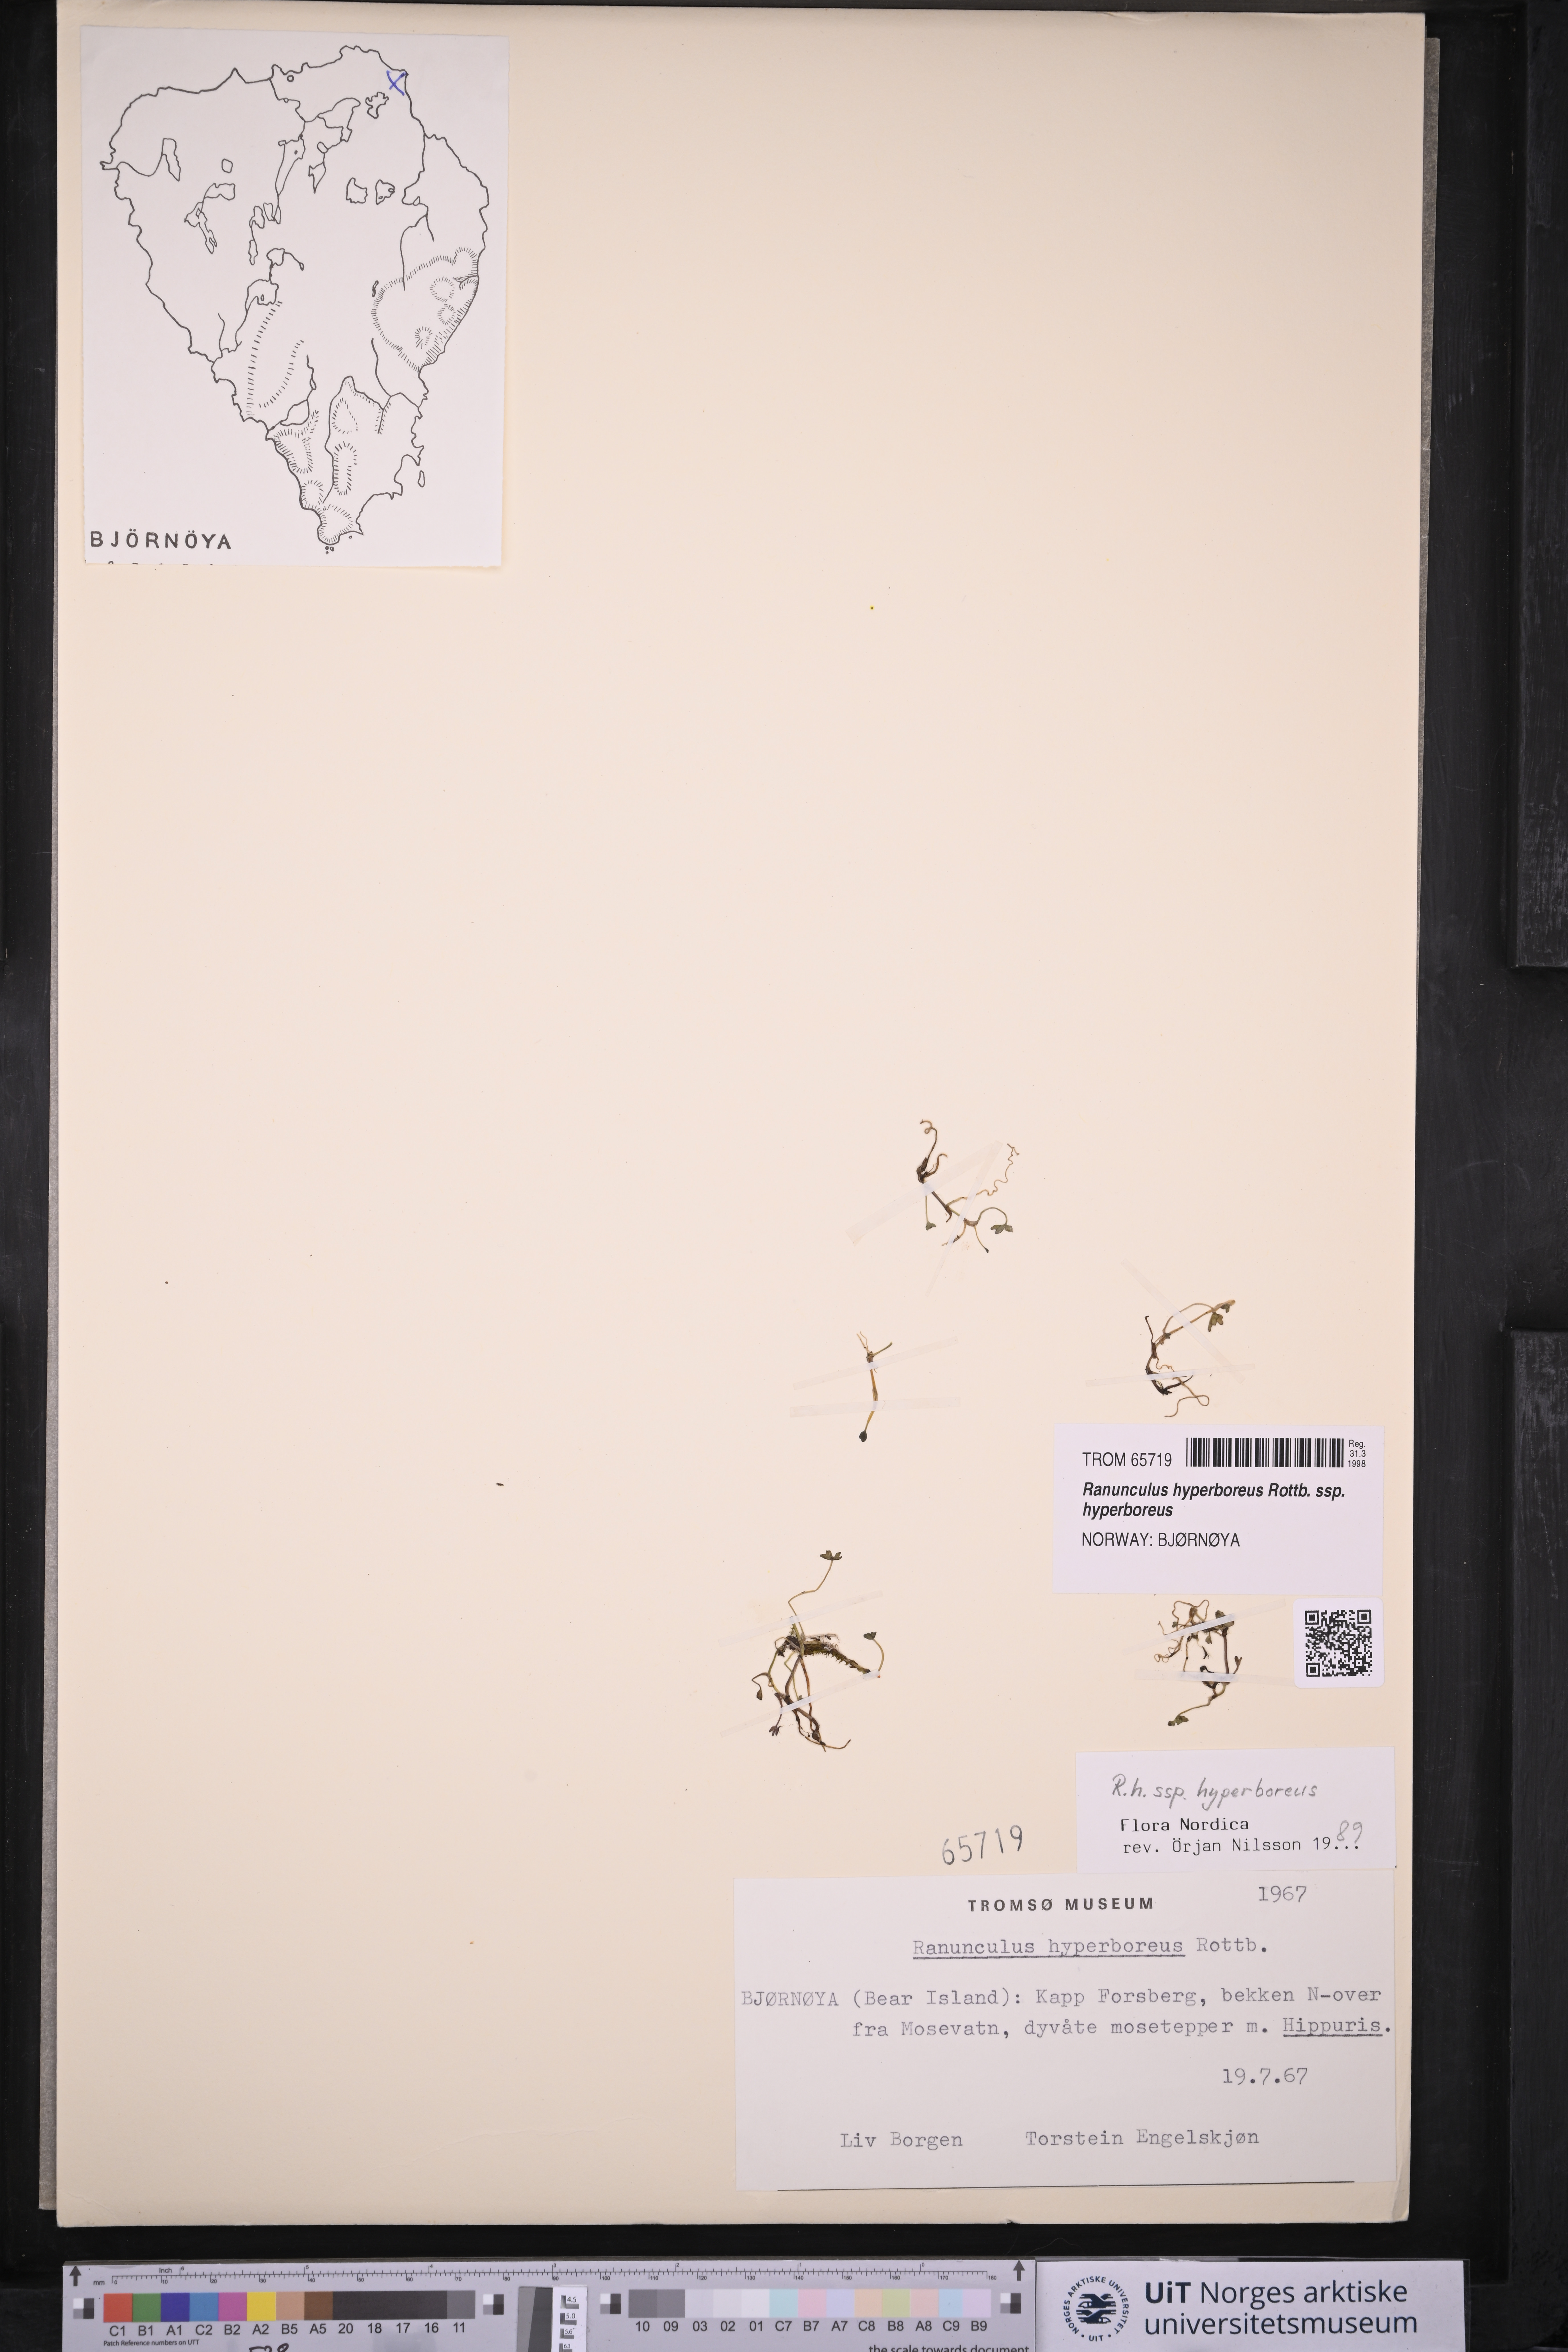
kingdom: Plantae
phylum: Tracheophyta
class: Magnoliopsida
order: Ranunculales
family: Ranunculaceae
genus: Ranunculus
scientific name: Ranunculus hyperboreus
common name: Arctic buttercup
